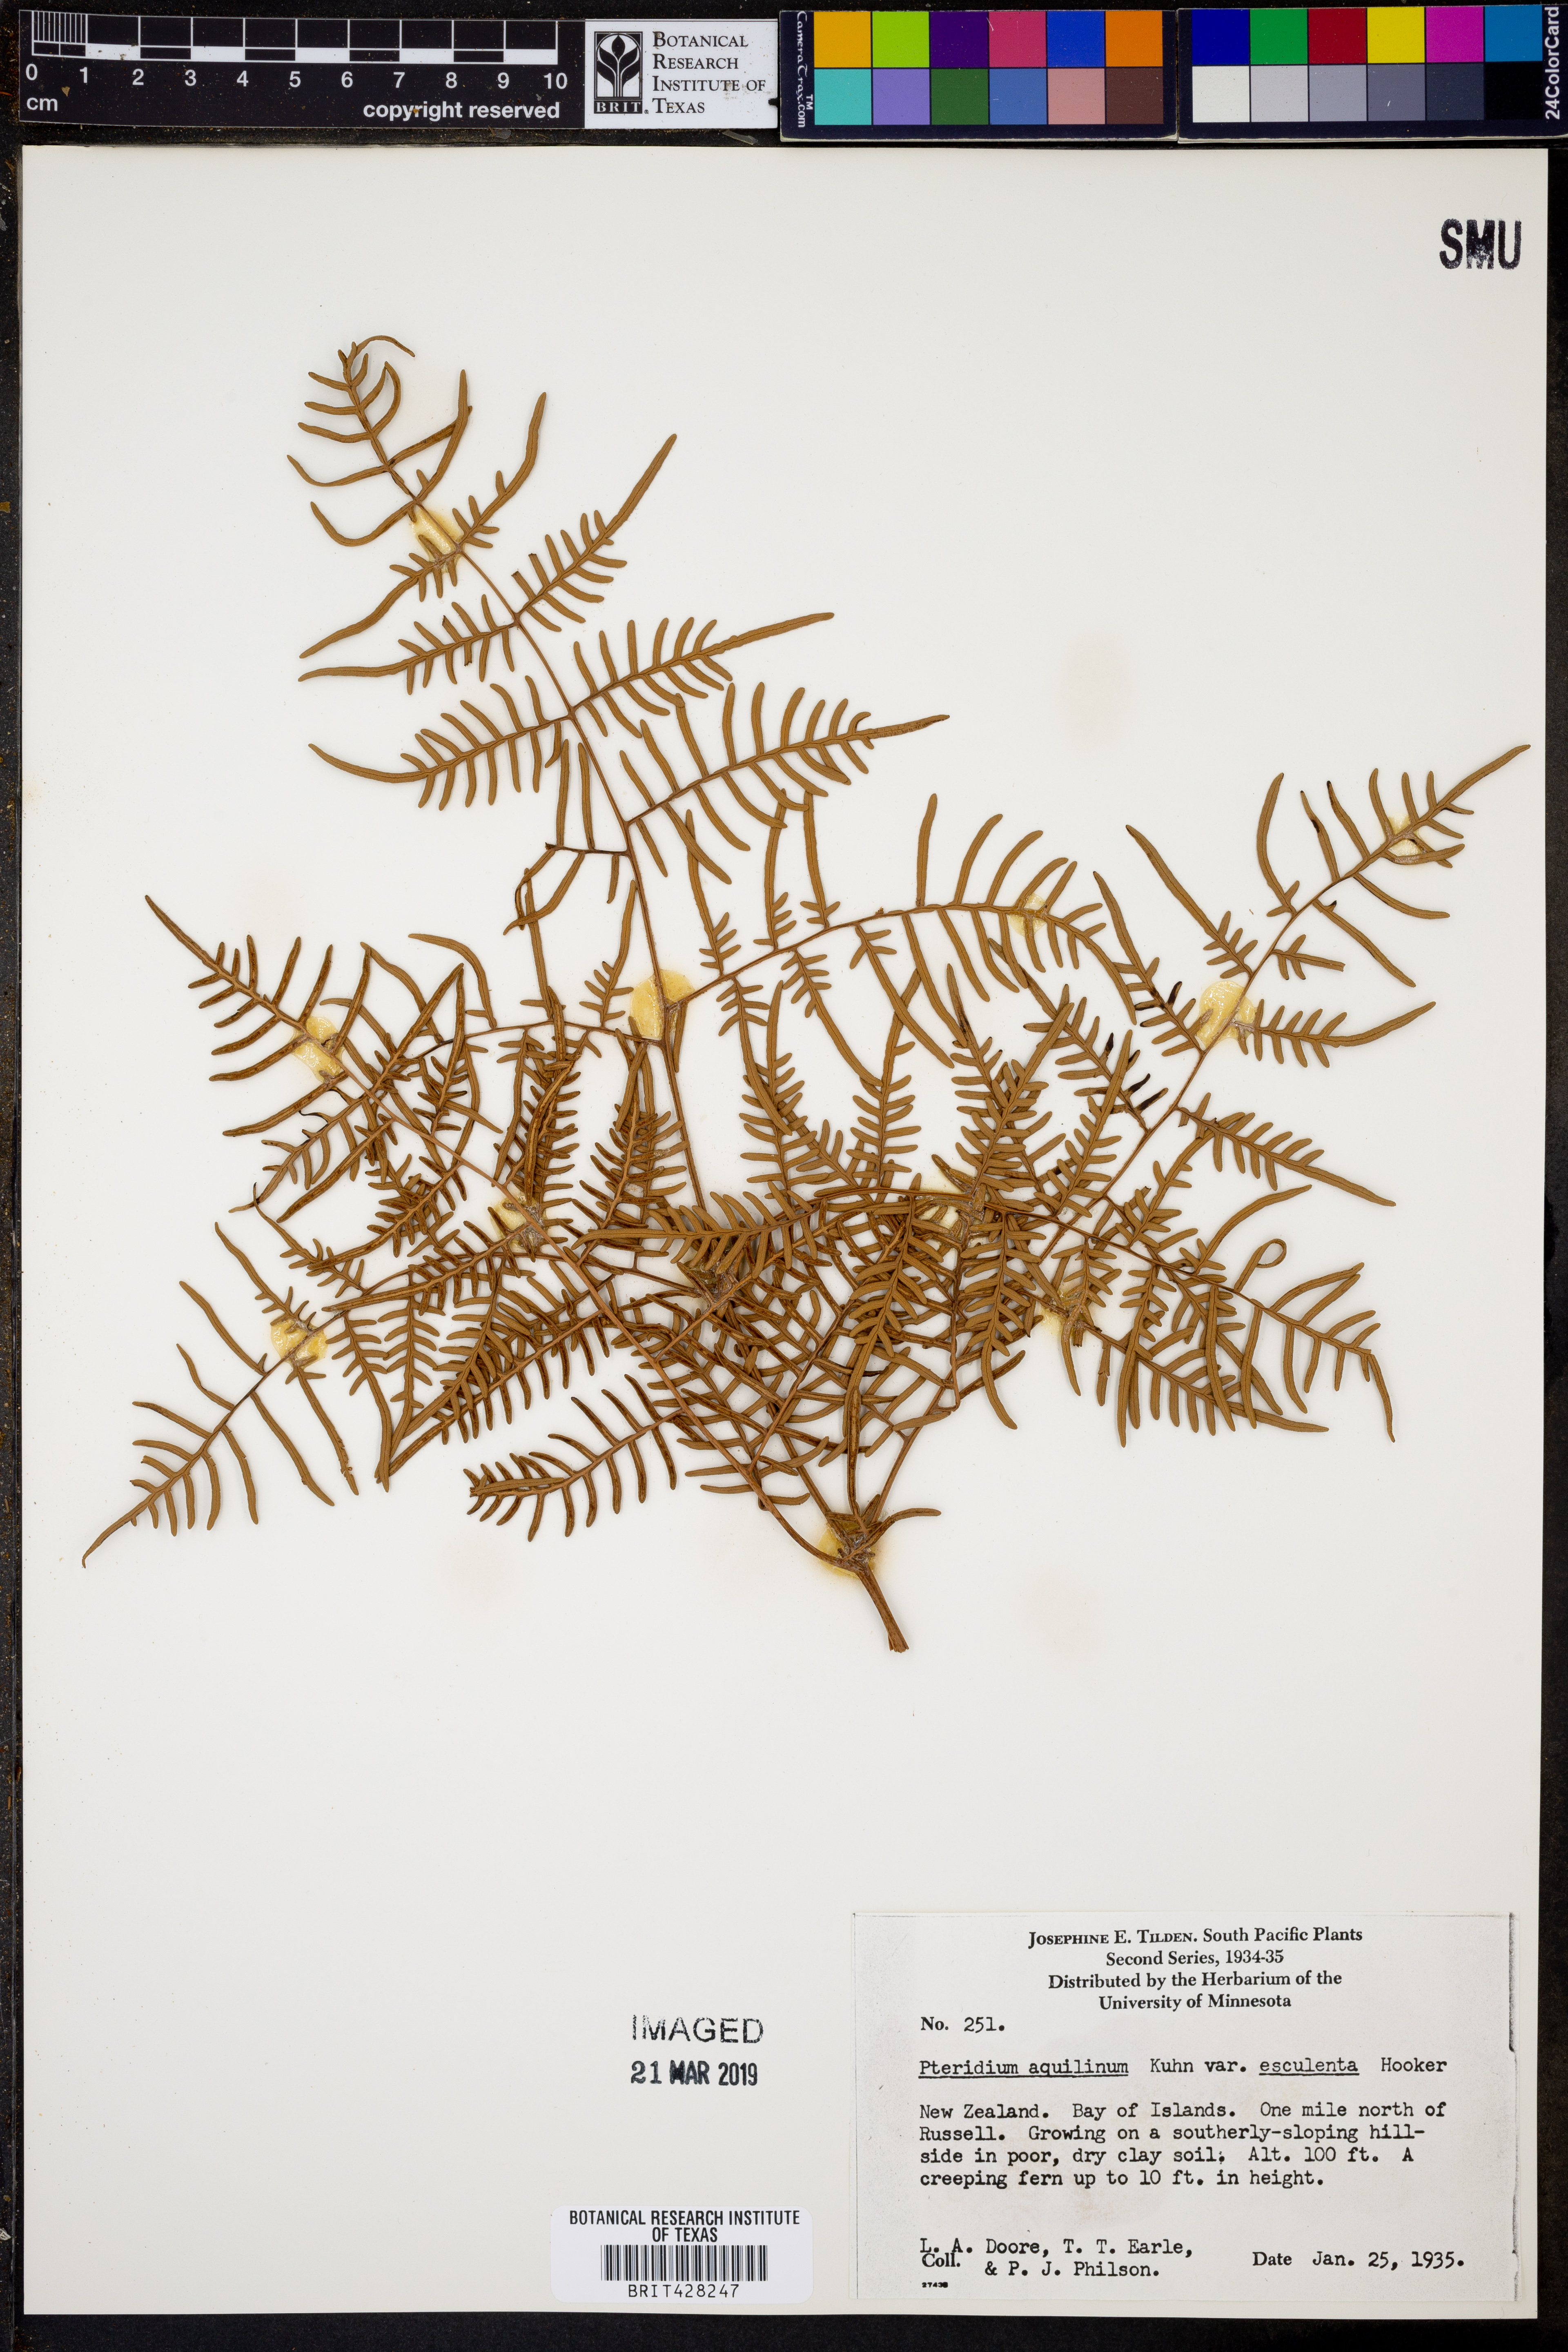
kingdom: Plantae
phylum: Tracheophyta
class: Polypodiopsida
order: Polypodiales
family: Dennstaedtiaceae
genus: Pteridium
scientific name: Pteridium esculentum
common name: Bracken fern
